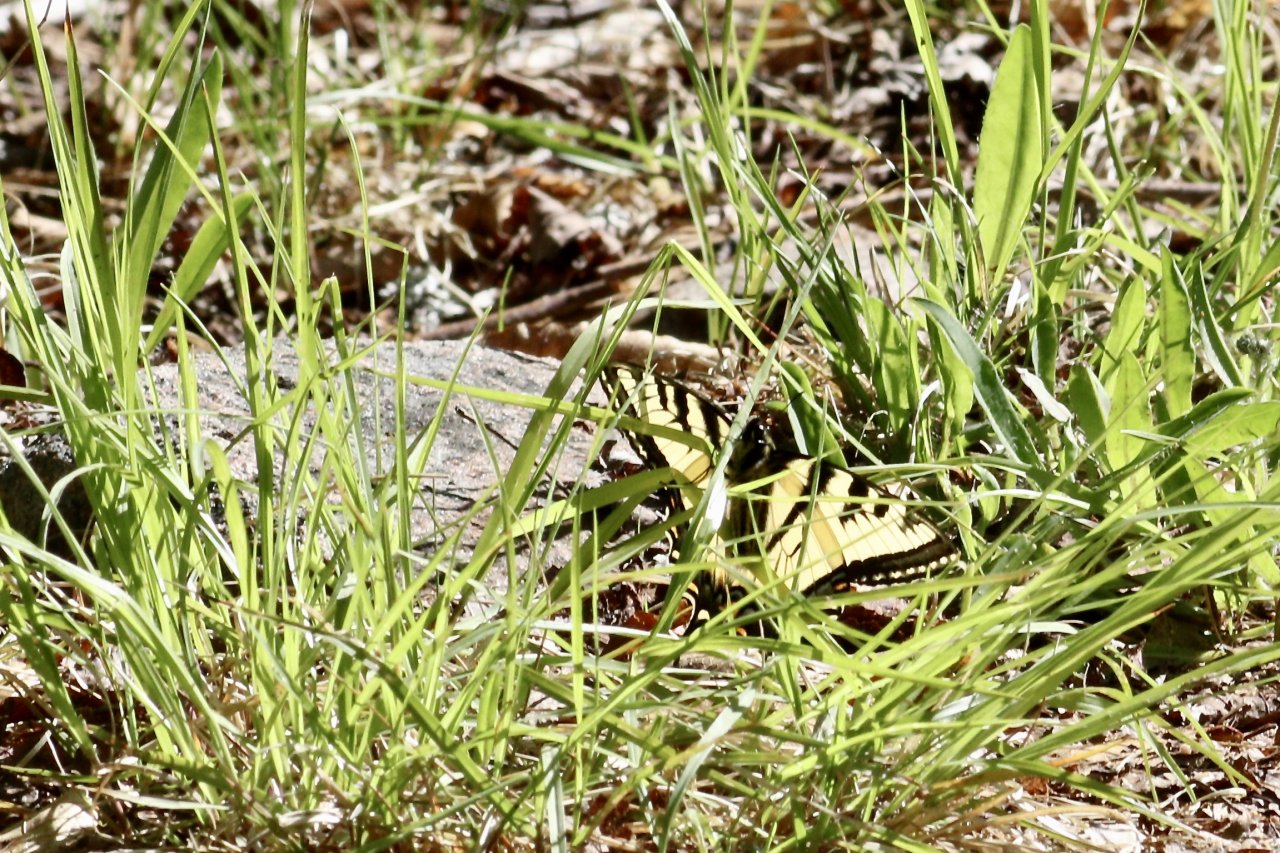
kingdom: Animalia
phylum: Arthropoda
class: Insecta
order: Lepidoptera
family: Papilionidae
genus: Pterourus
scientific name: Pterourus canadensis
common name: Canadian Tiger Swallowtail
